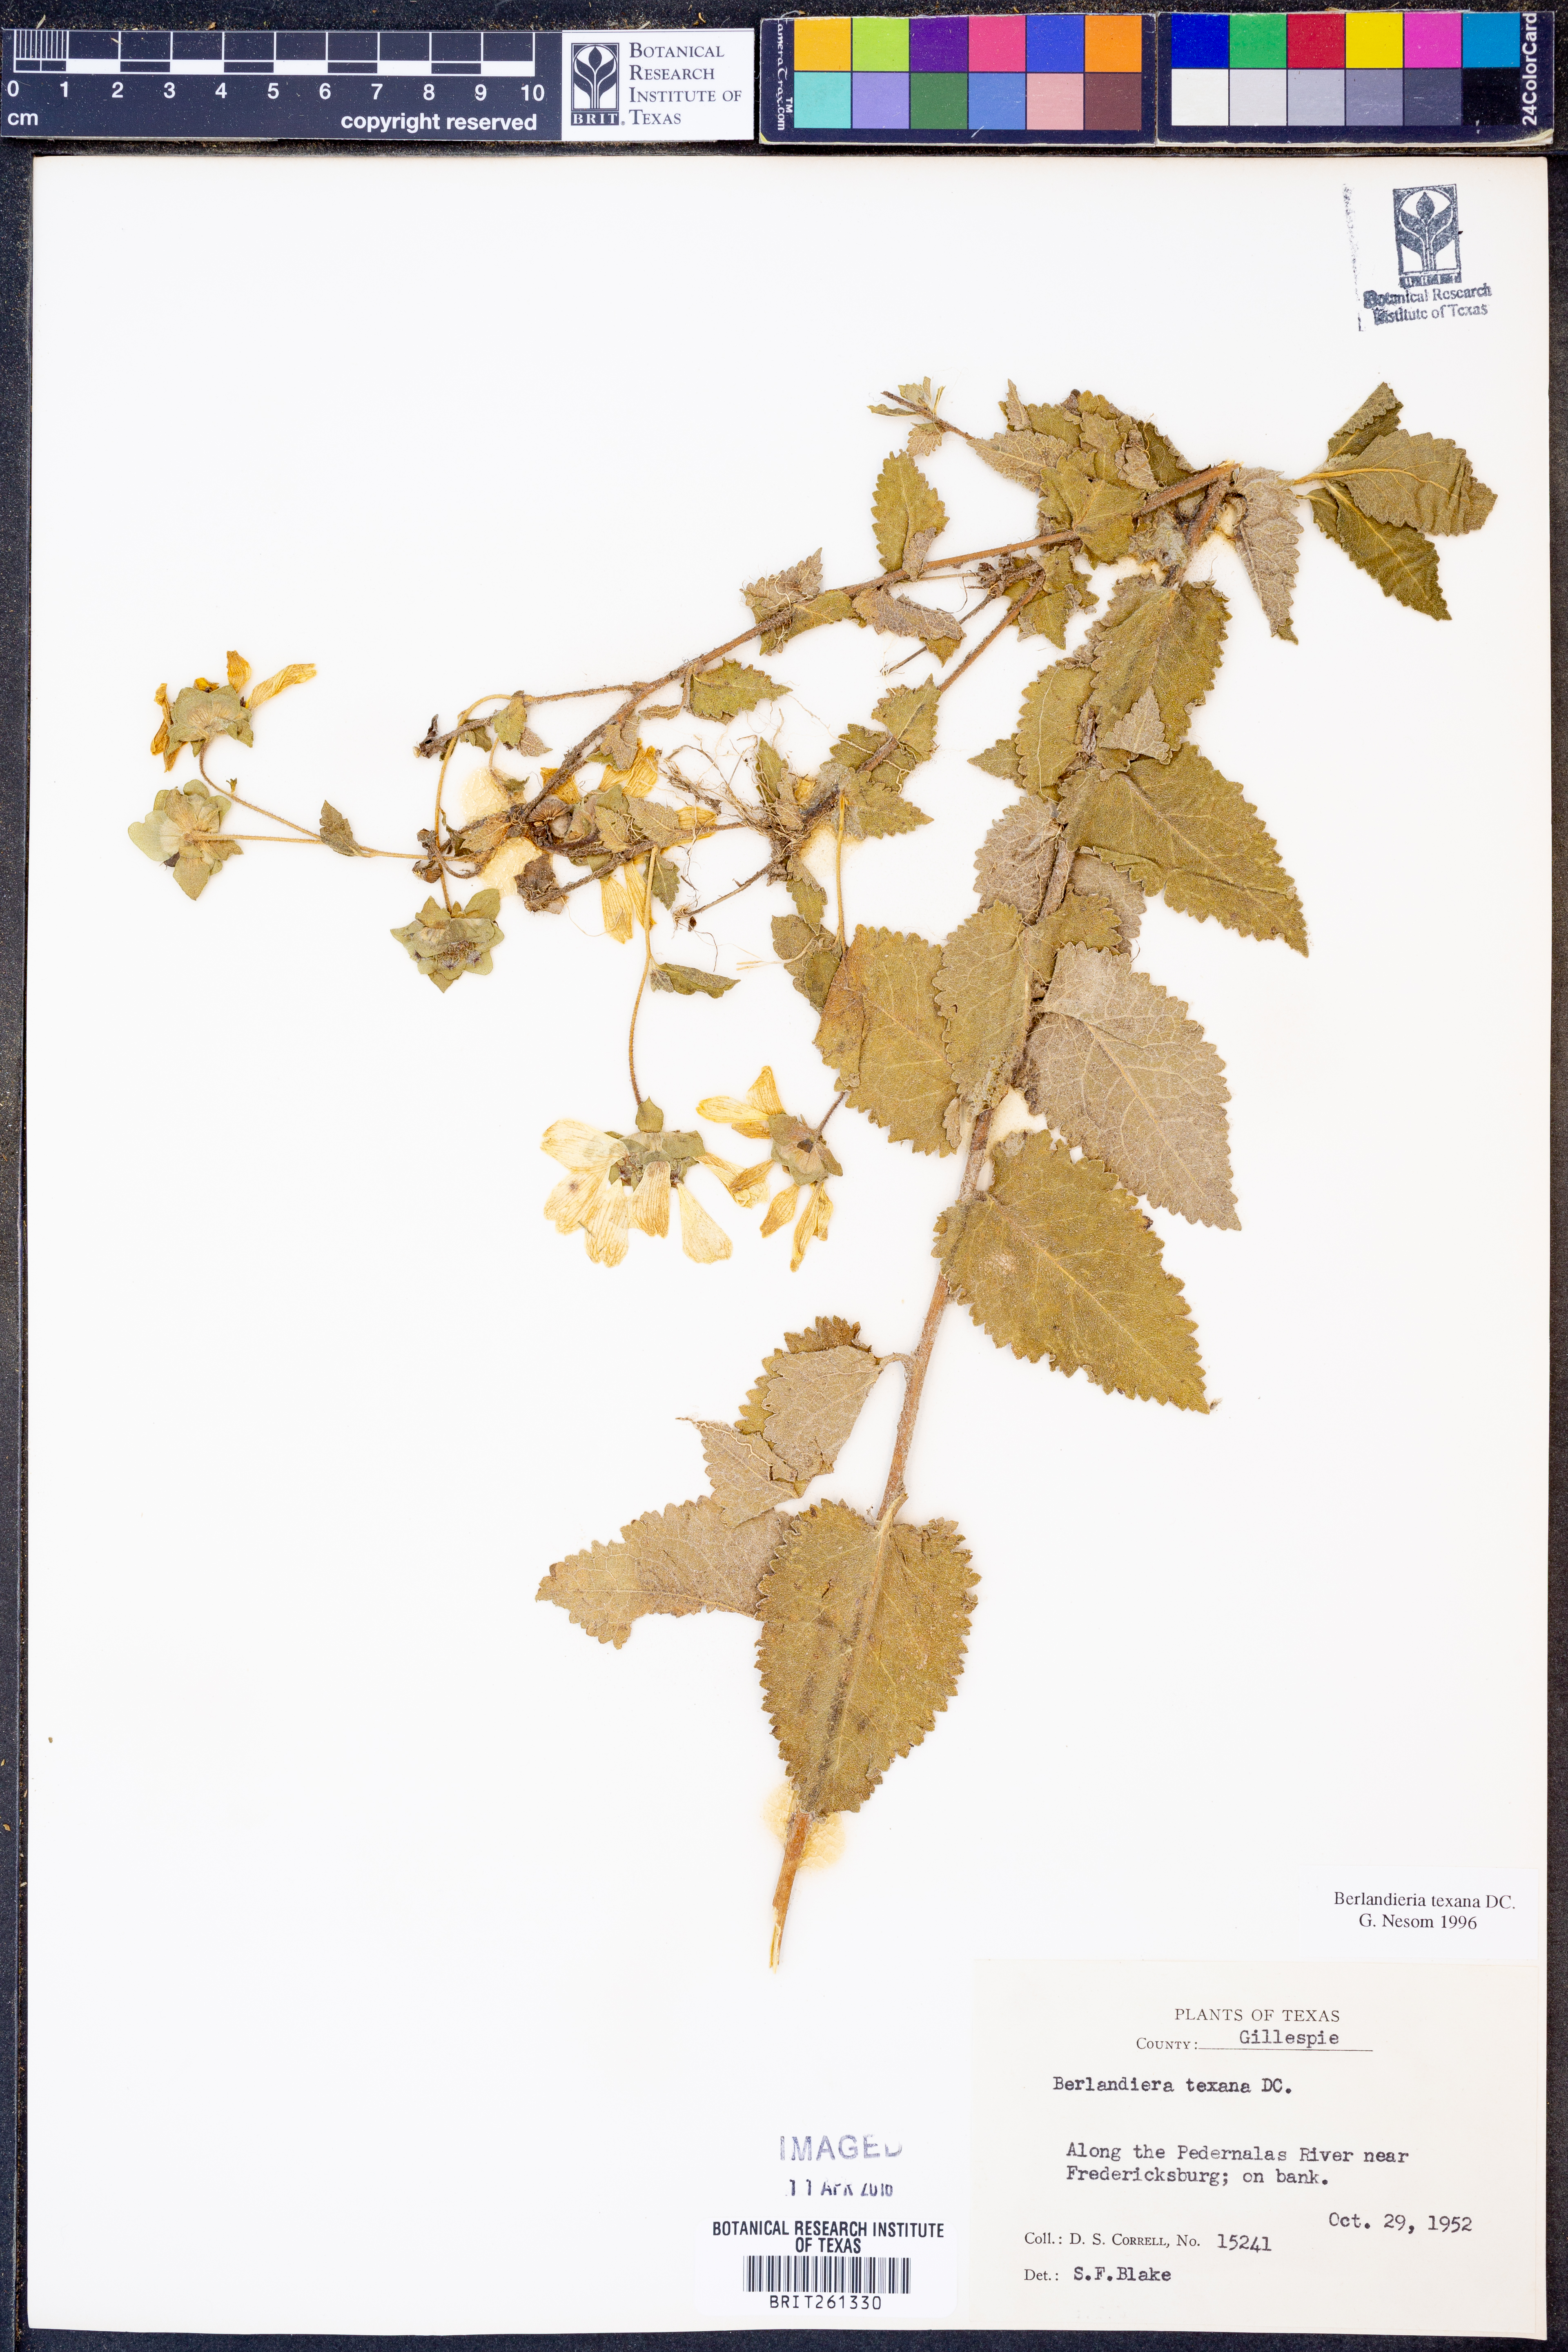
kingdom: Plantae
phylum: Tracheophyta
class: Magnoliopsida
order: Asterales
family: Asteraceae
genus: Berlandiera
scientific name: Berlandiera texana
